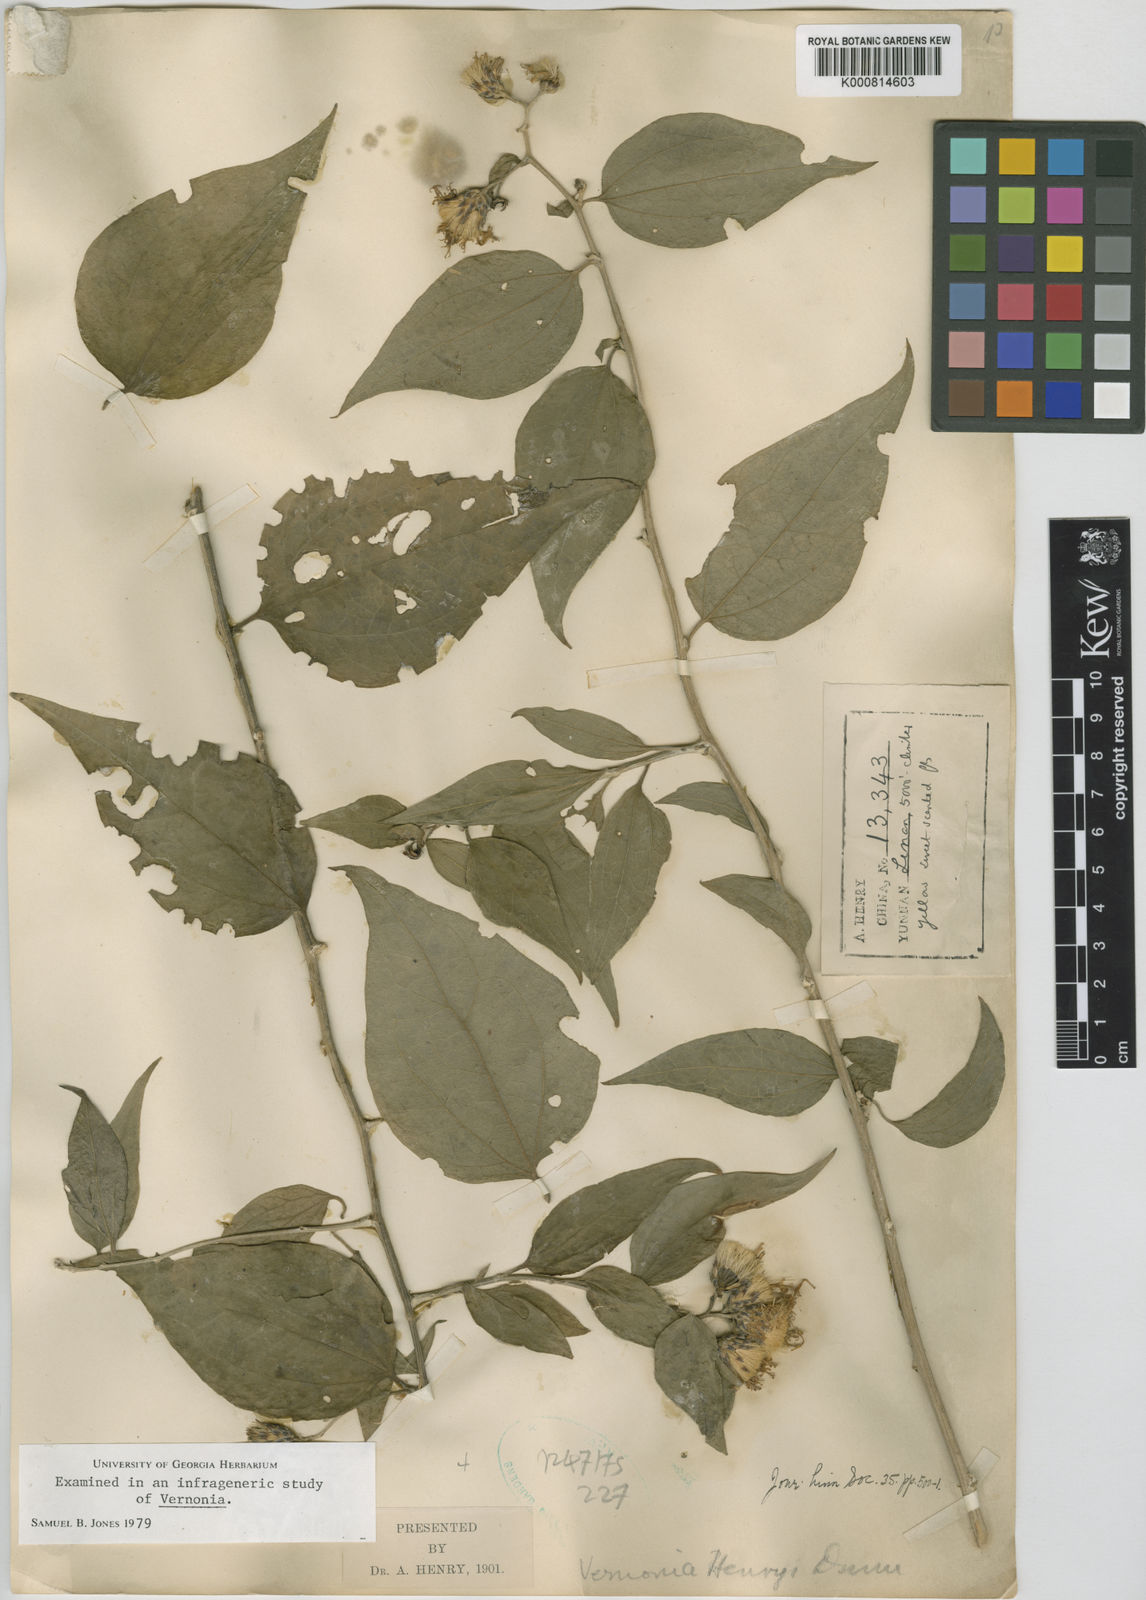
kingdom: Plantae
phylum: Tracheophyta
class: Magnoliopsida
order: Asterales
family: Asteraceae
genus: Distephanus
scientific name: Distephanus henryi
